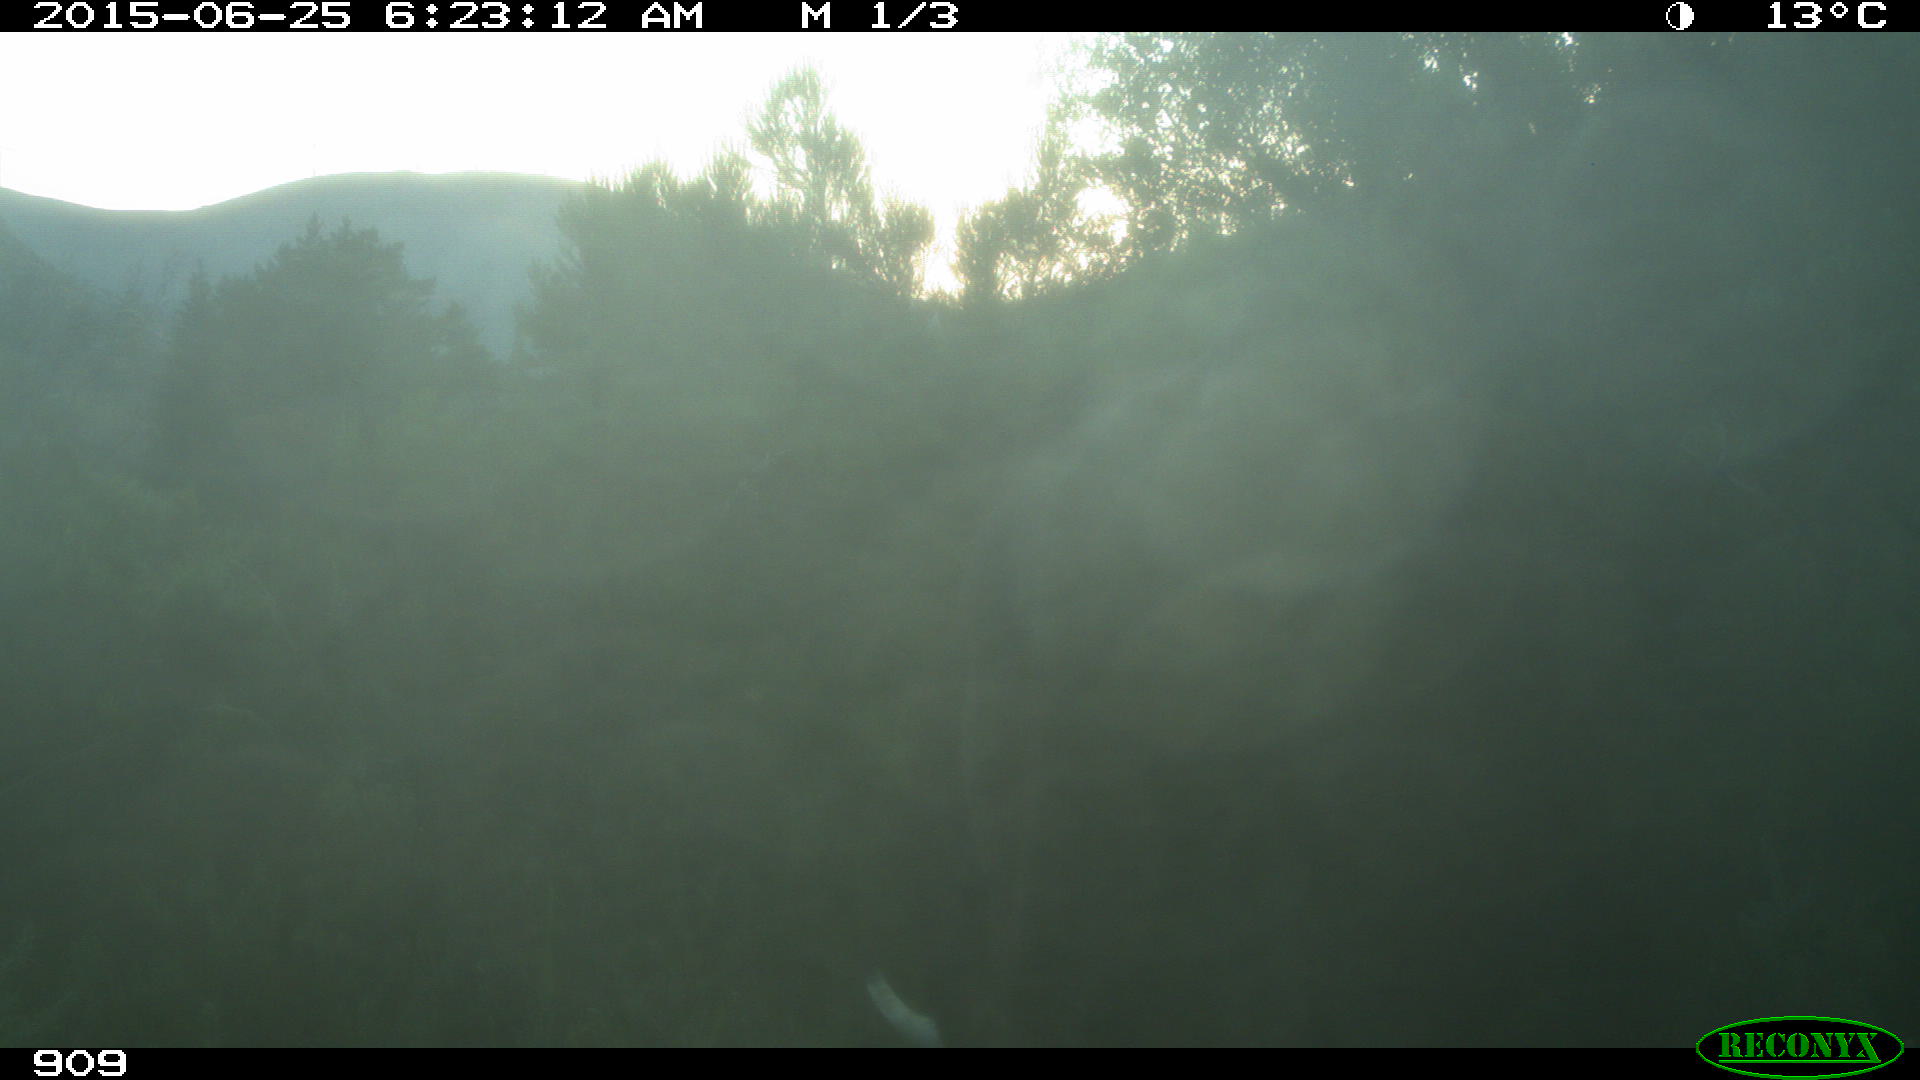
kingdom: Animalia
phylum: Chordata
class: Mammalia
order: Artiodactyla
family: Bovidae
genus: Bos
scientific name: Bos taurus
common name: Domesticated cattle
